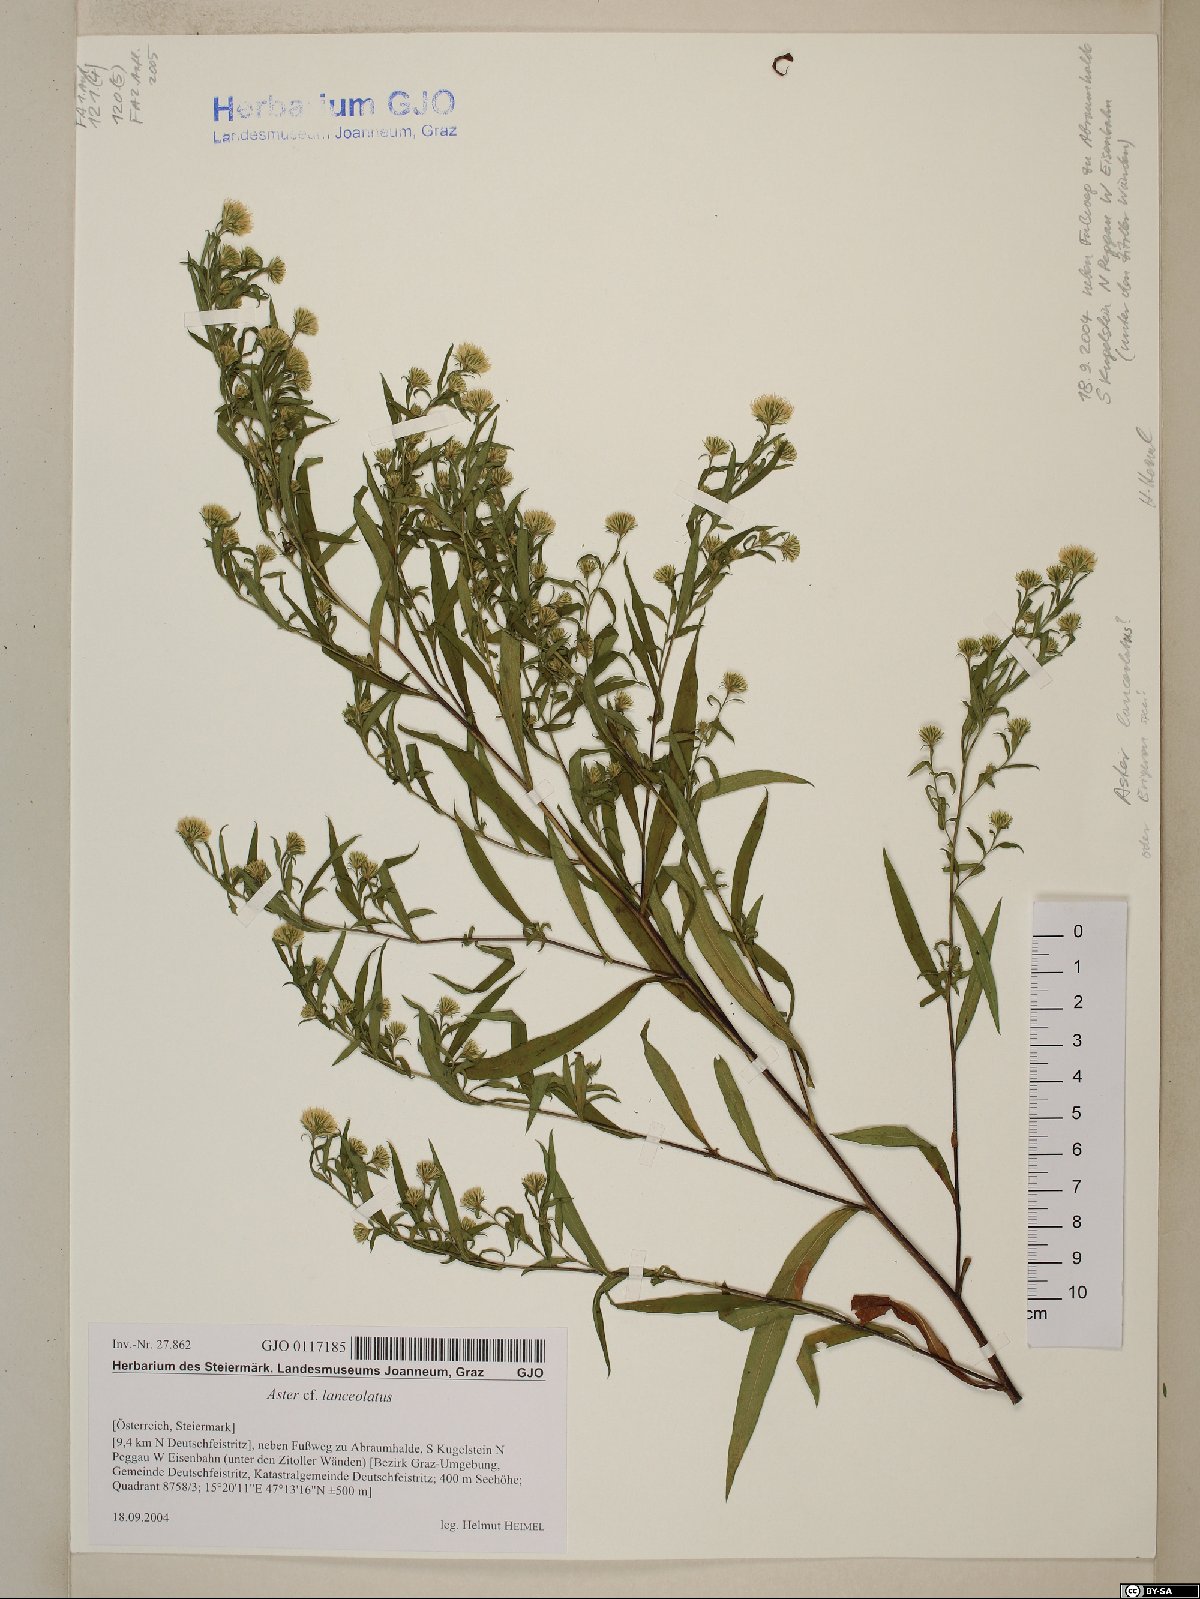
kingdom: Plantae
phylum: Tracheophyta
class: Magnoliopsida
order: Asterales
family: Asteraceae
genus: Symphyotrichum
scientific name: Symphyotrichum lanceolatum
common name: Panicled aster
